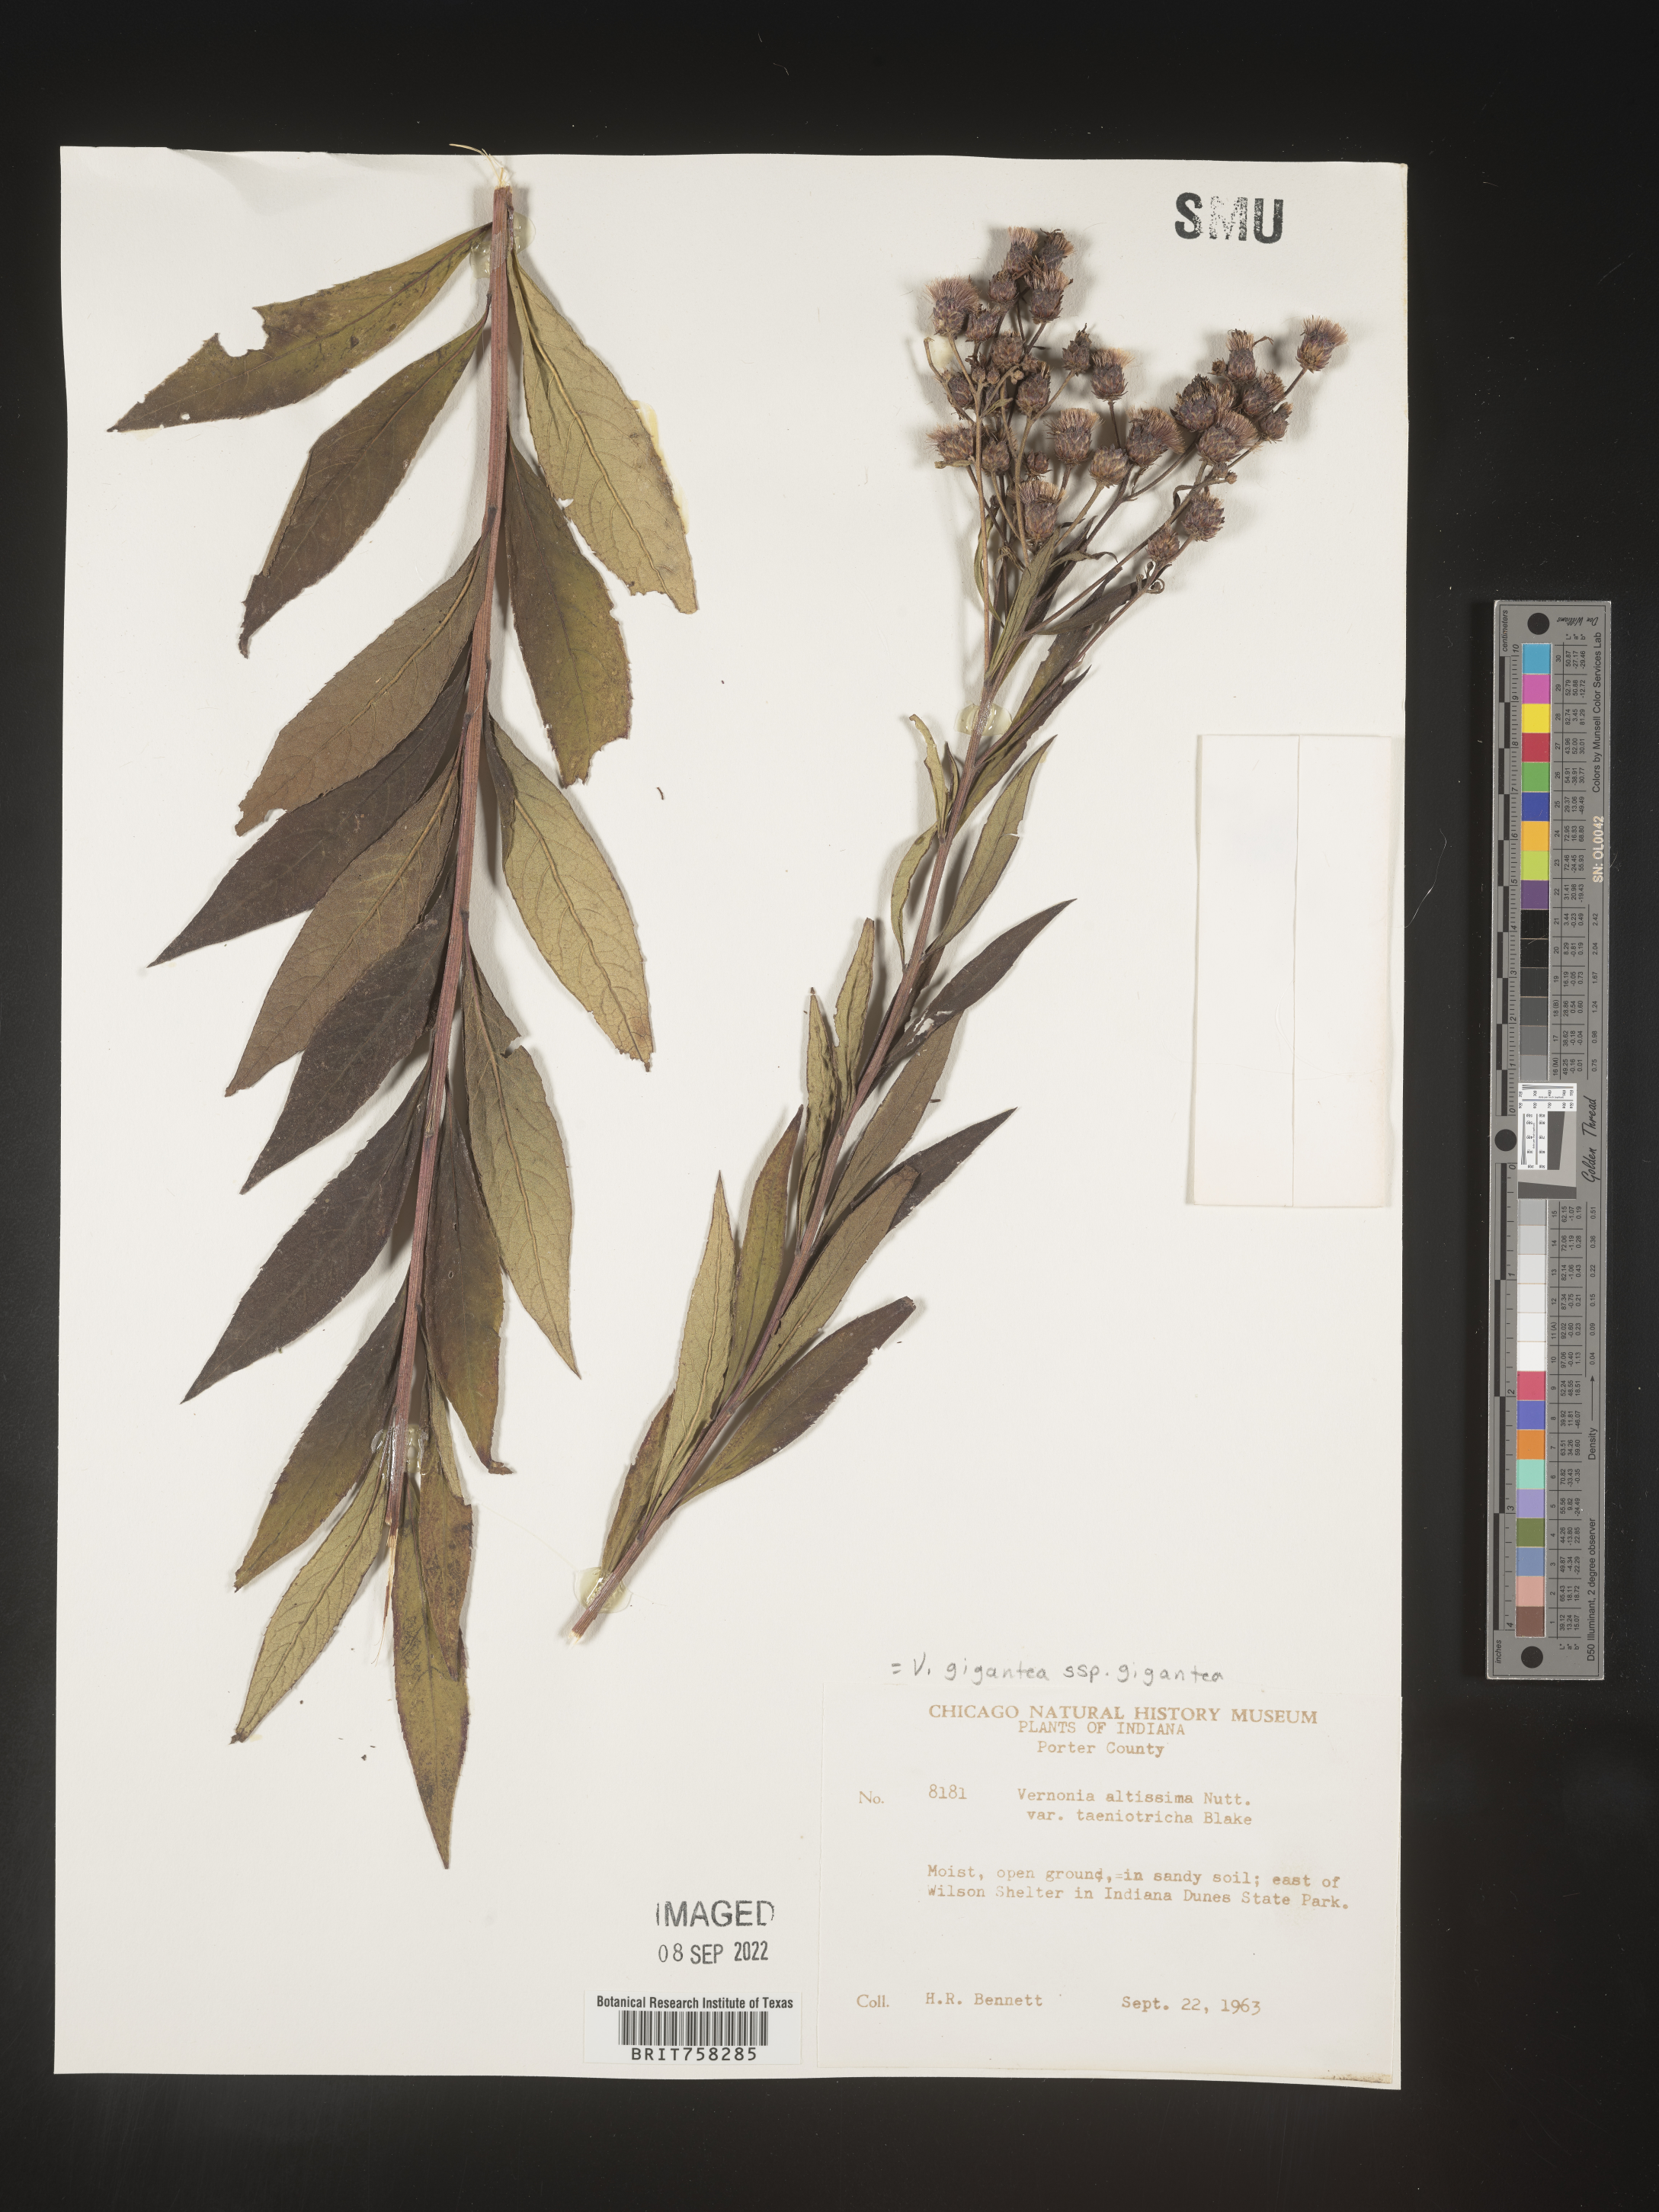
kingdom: Plantae
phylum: Tracheophyta
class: Magnoliopsida
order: Asterales
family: Asteraceae
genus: Vernonia
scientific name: Vernonia gigantea
